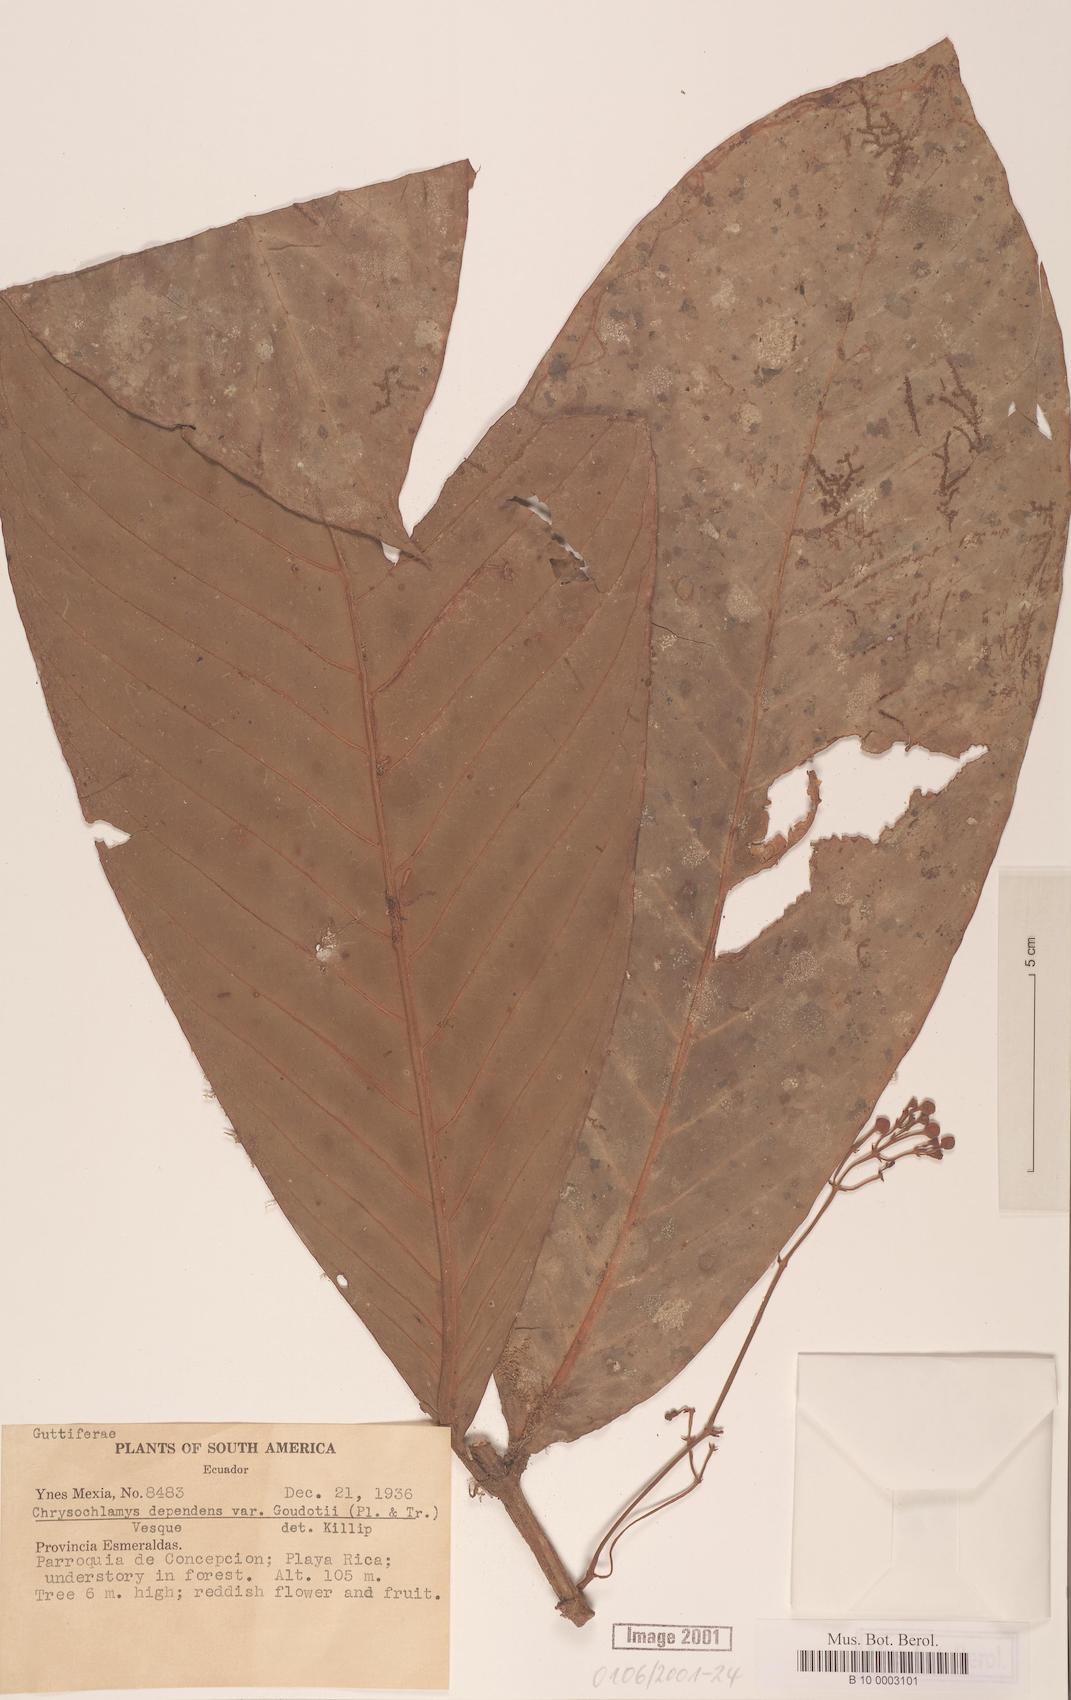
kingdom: Plantae
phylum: Tracheophyta
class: Magnoliopsida
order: Malpighiales
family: Clusiaceae
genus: Chrysochlamys
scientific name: Chrysochlamys goudotii
